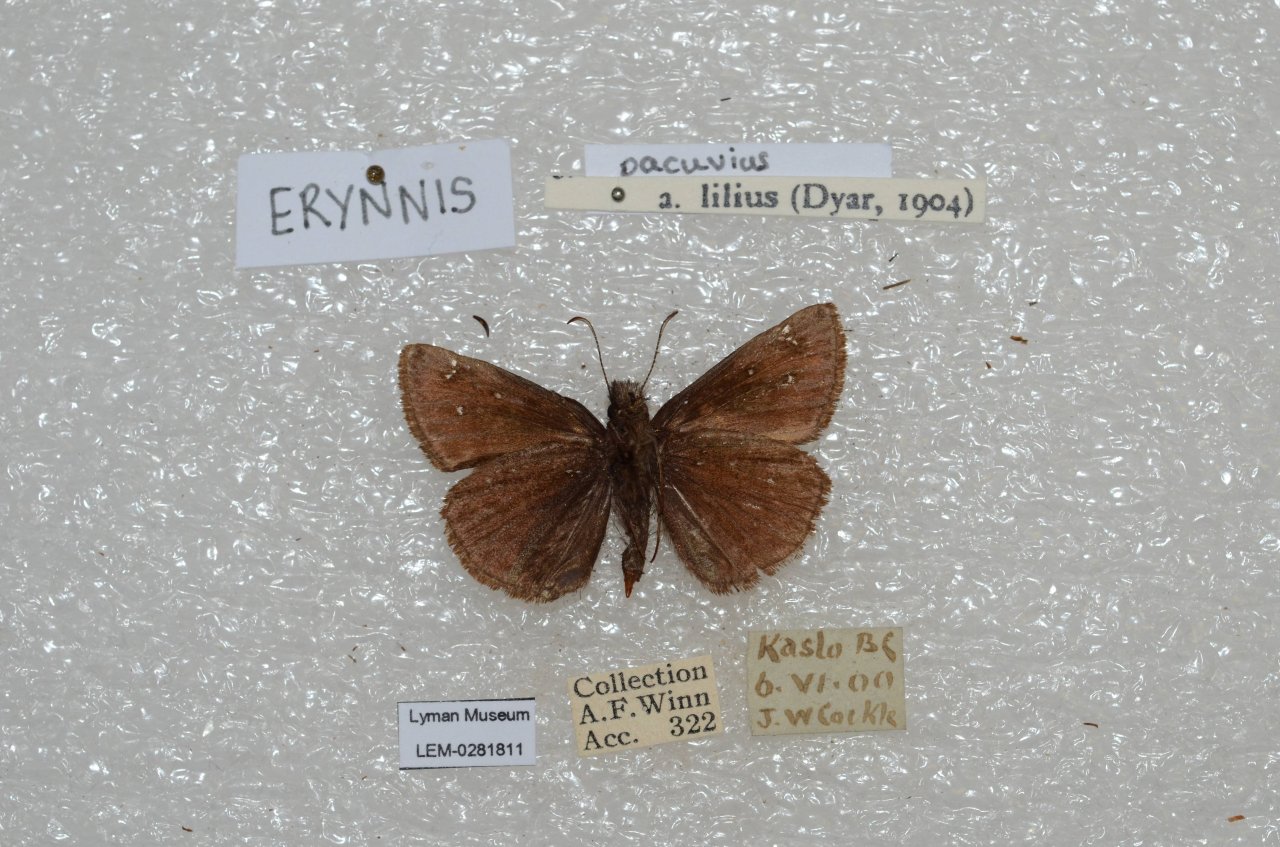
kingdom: Animalia
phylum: Arthropoda
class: Insecta
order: Lepidoptera
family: Hesperiidae
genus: Erynnis
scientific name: Erynnis pacuvius
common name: Pacuvius Duskywing
